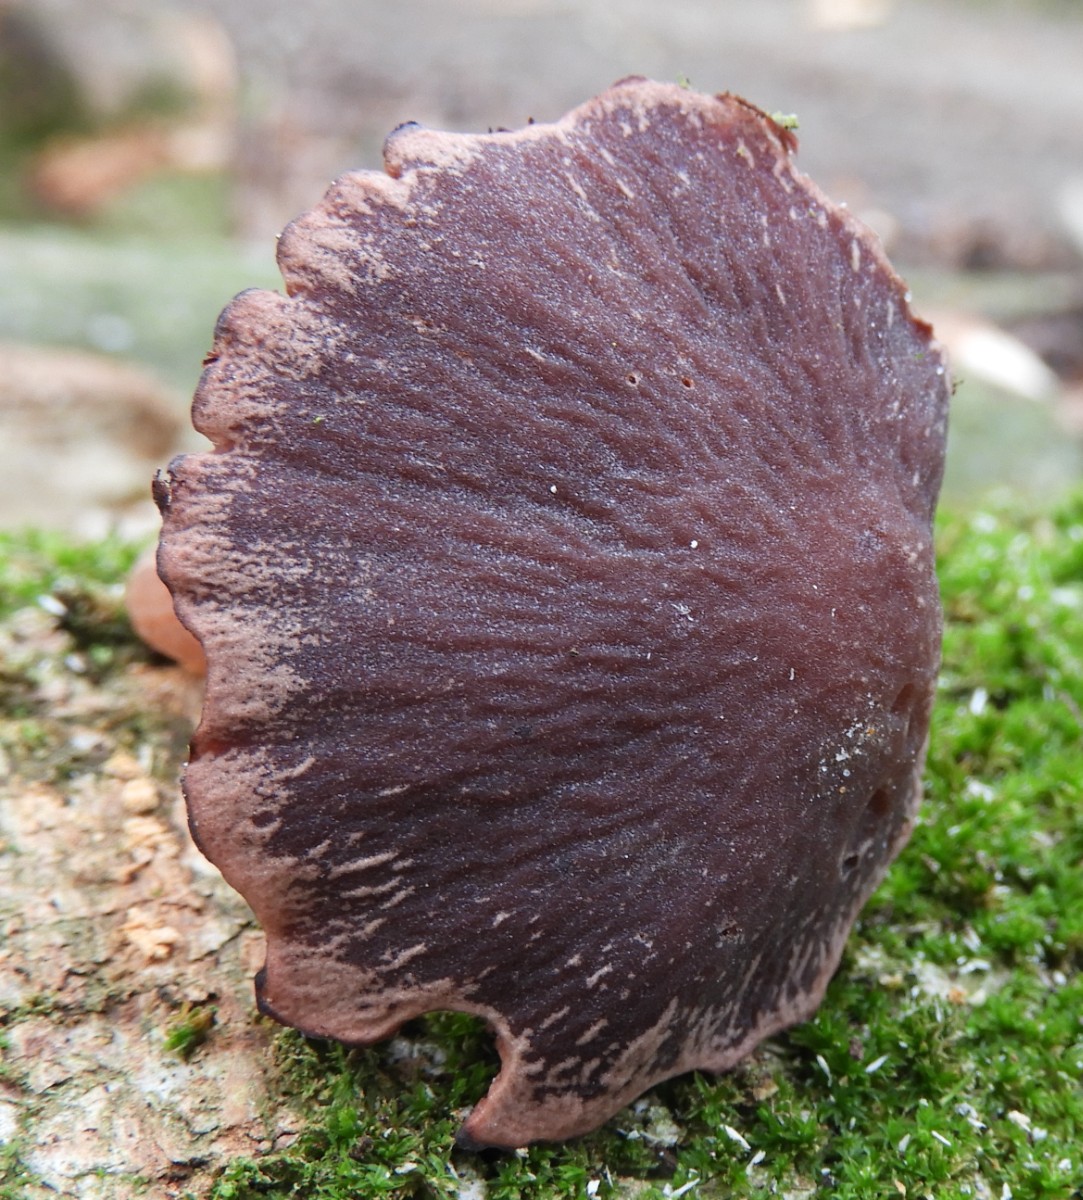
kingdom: Fungi
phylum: Basidiomycota
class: Agaricomycetes
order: Agaricales
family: Psathyrellaceae
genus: Psathyrella
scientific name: Psathyrella bipellis
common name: vinrød mørkhat
